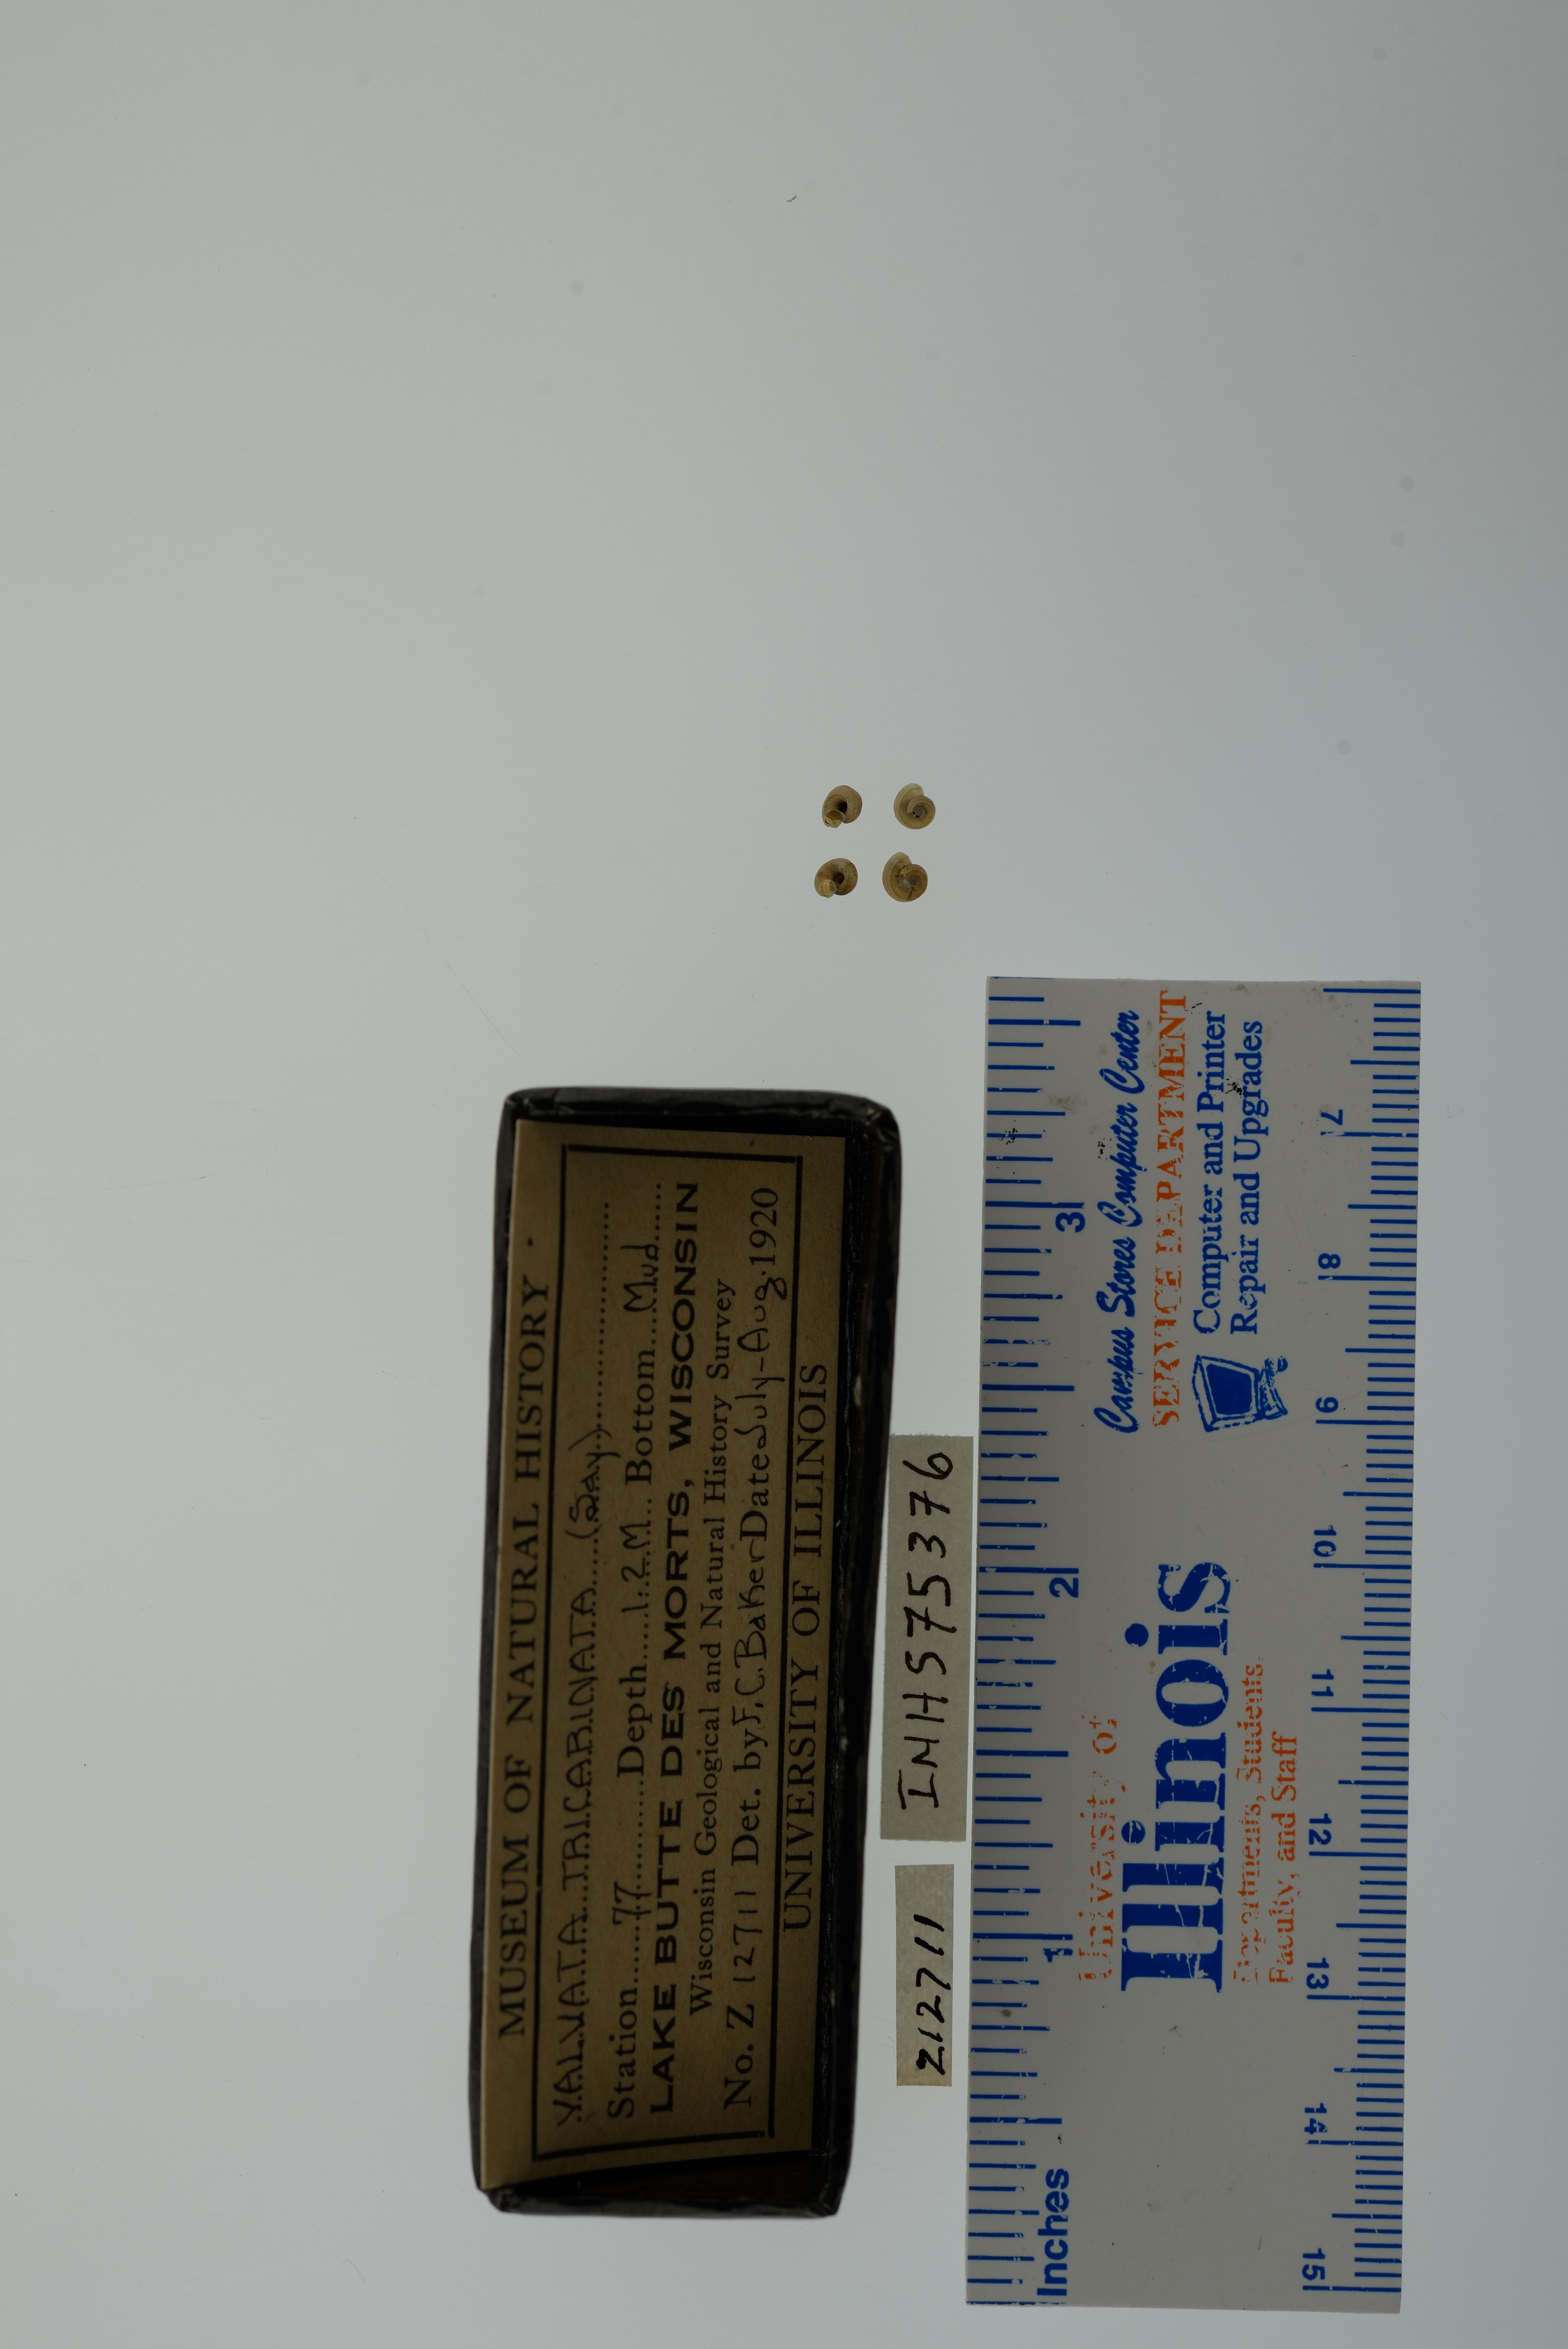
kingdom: Animalia
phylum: Mollusca
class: Gastropoda
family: Valvatidae
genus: Valvata
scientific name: Valvata tricarinata
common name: Three-ridge valvata
